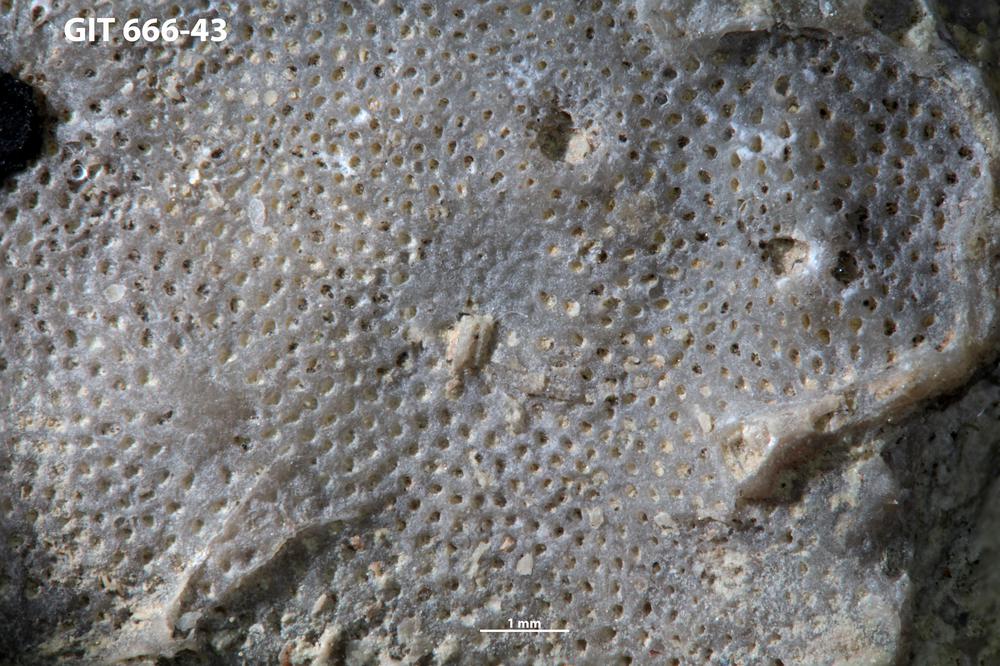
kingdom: Animalia
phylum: Bryozoa
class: Stenolaemata
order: Cystoporida
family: Fistuliporidae
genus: Fistulipora
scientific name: Fistulipora przhidolensis
